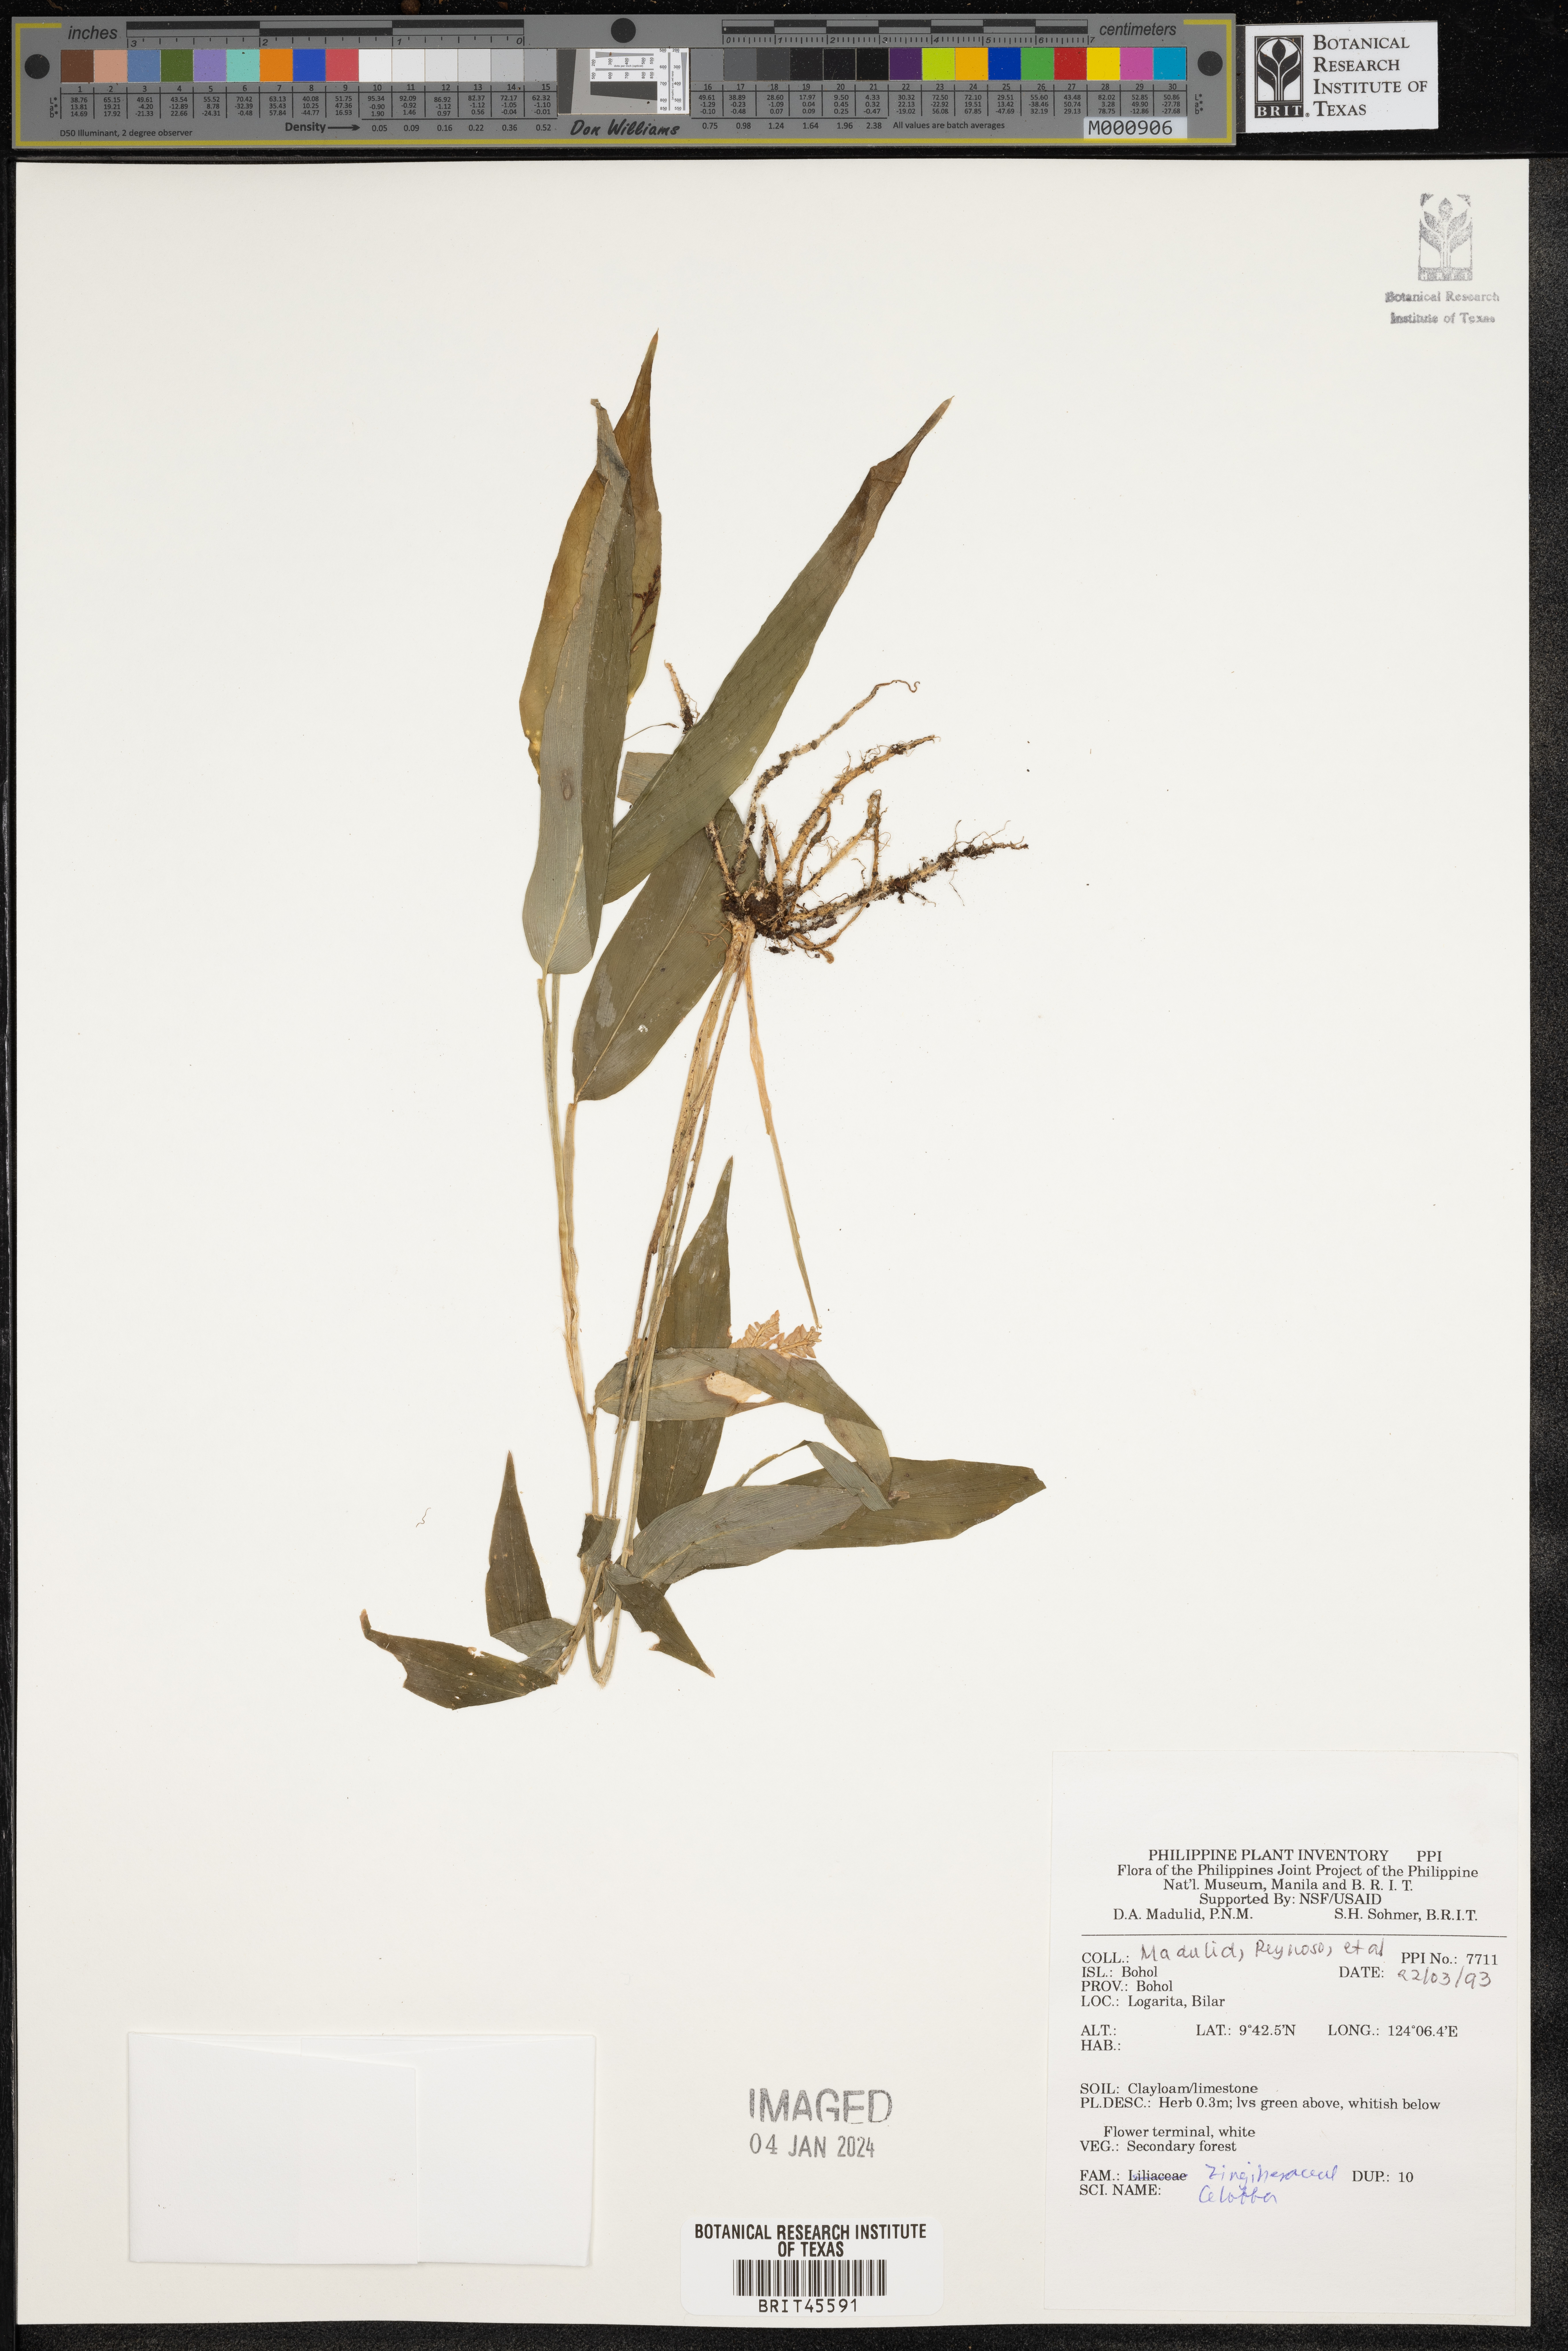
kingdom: Plantae
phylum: Tracheophyta
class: Liliopsida
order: Zingiberales
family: Zingiberaceae
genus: Globba
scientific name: Globba
